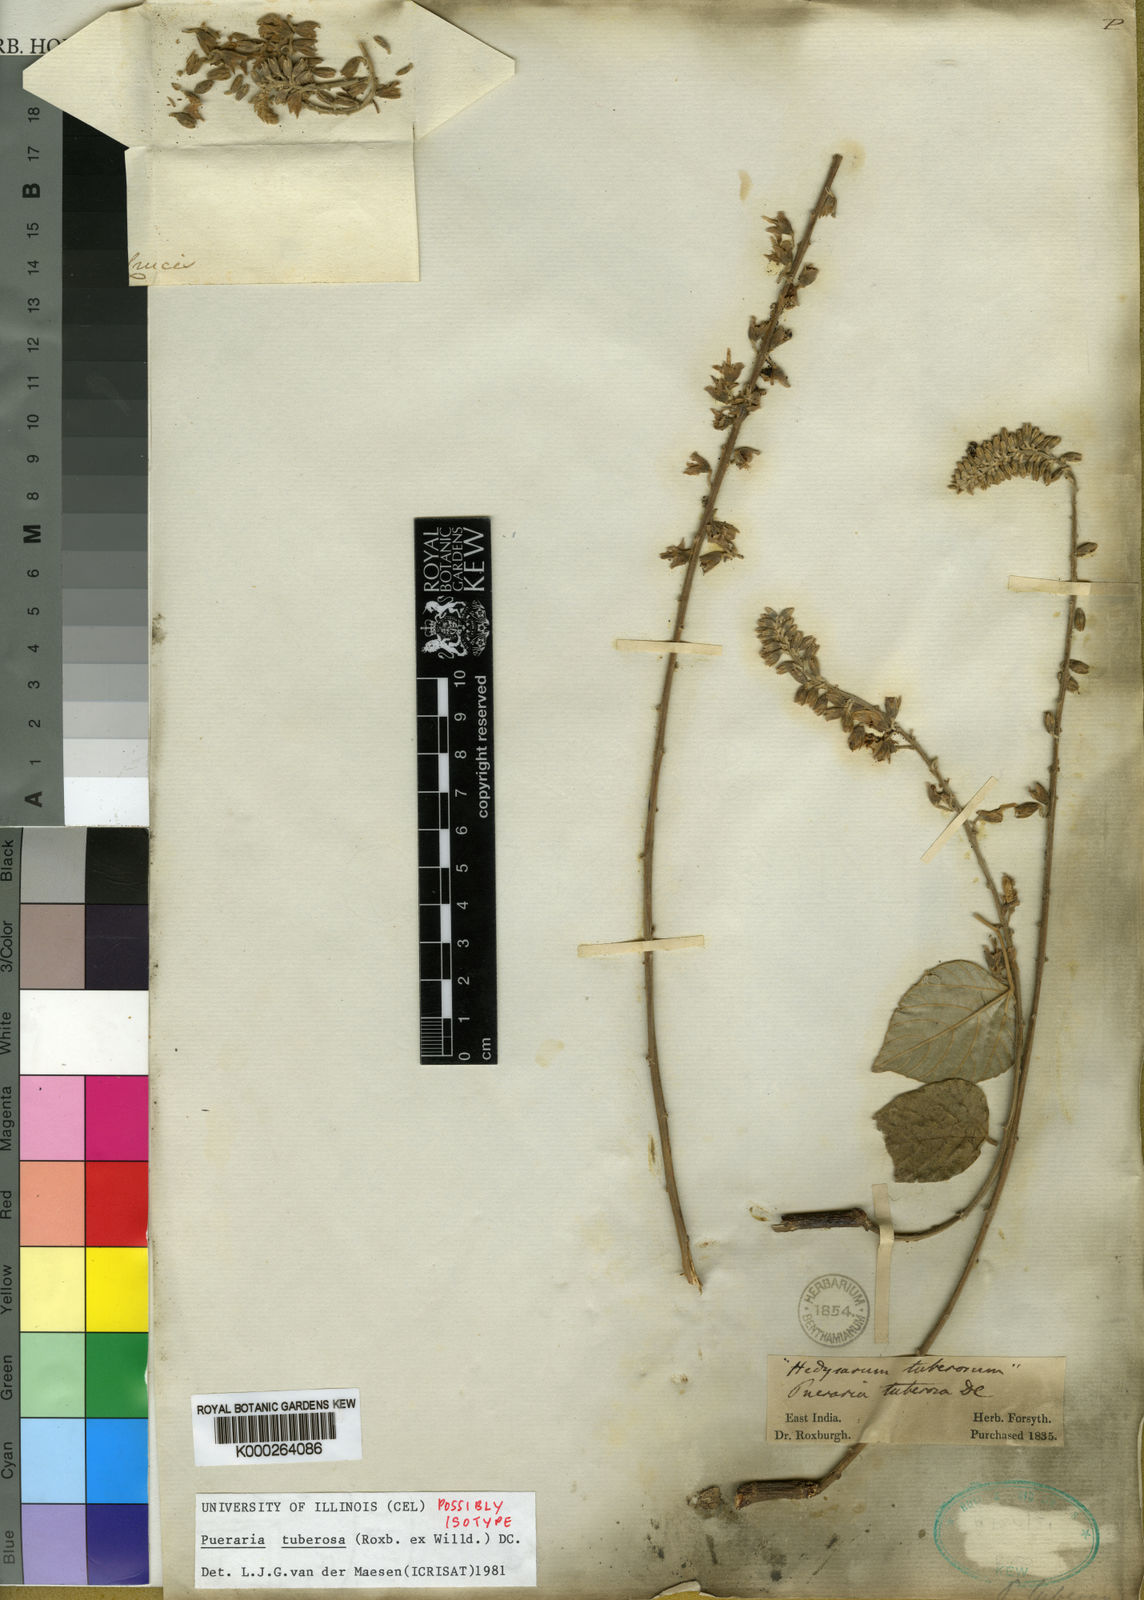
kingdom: Plantae
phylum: Tracheophyta
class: Magnoliopsida
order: Fabales
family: Fabaceae
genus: Pueraria
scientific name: Pueraria tuberosa
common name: Nepalese kudzu
